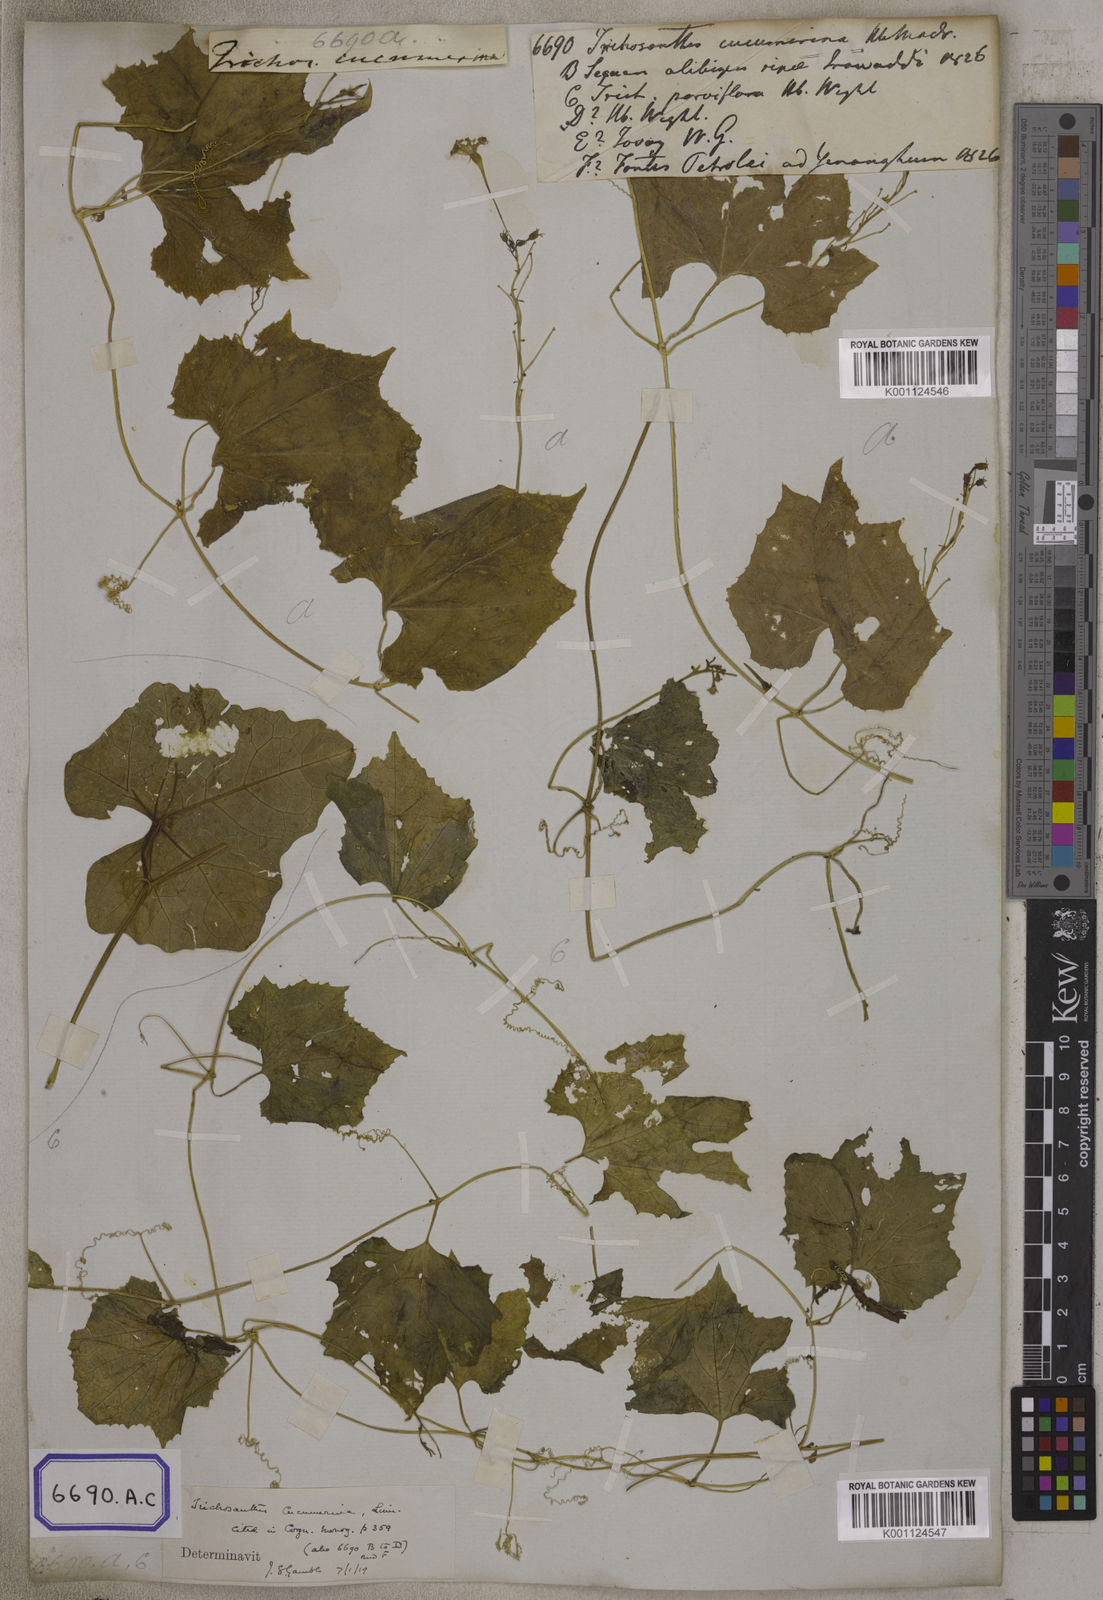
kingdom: Plantae
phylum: Tracheophyta
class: Magnoliopsida
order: Cucurbitales
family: Cucurbitaceae
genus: Trichosanthes
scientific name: Trichosanthes
